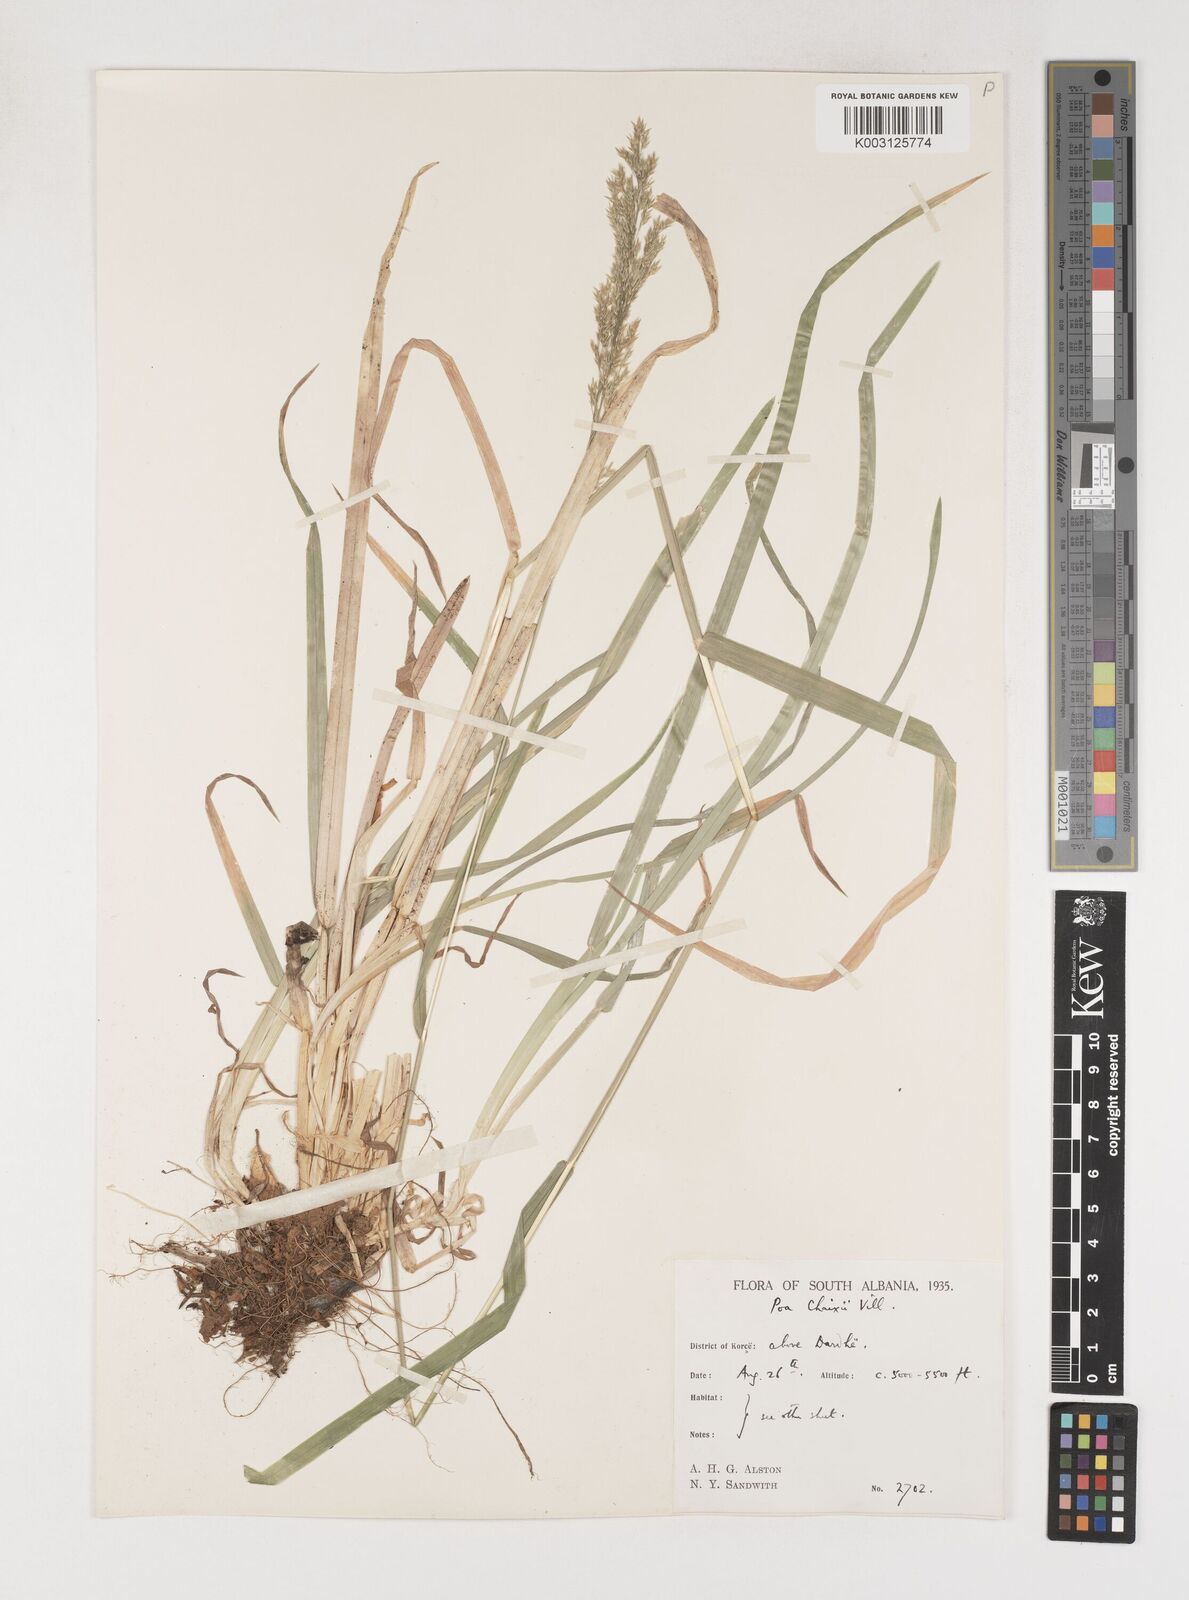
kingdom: Plantae
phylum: Tracheophyta
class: Liliopsida
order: Poales
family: Poaceae
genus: Poa
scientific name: Poa chaixii
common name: Broad-leaved meadow-grass
